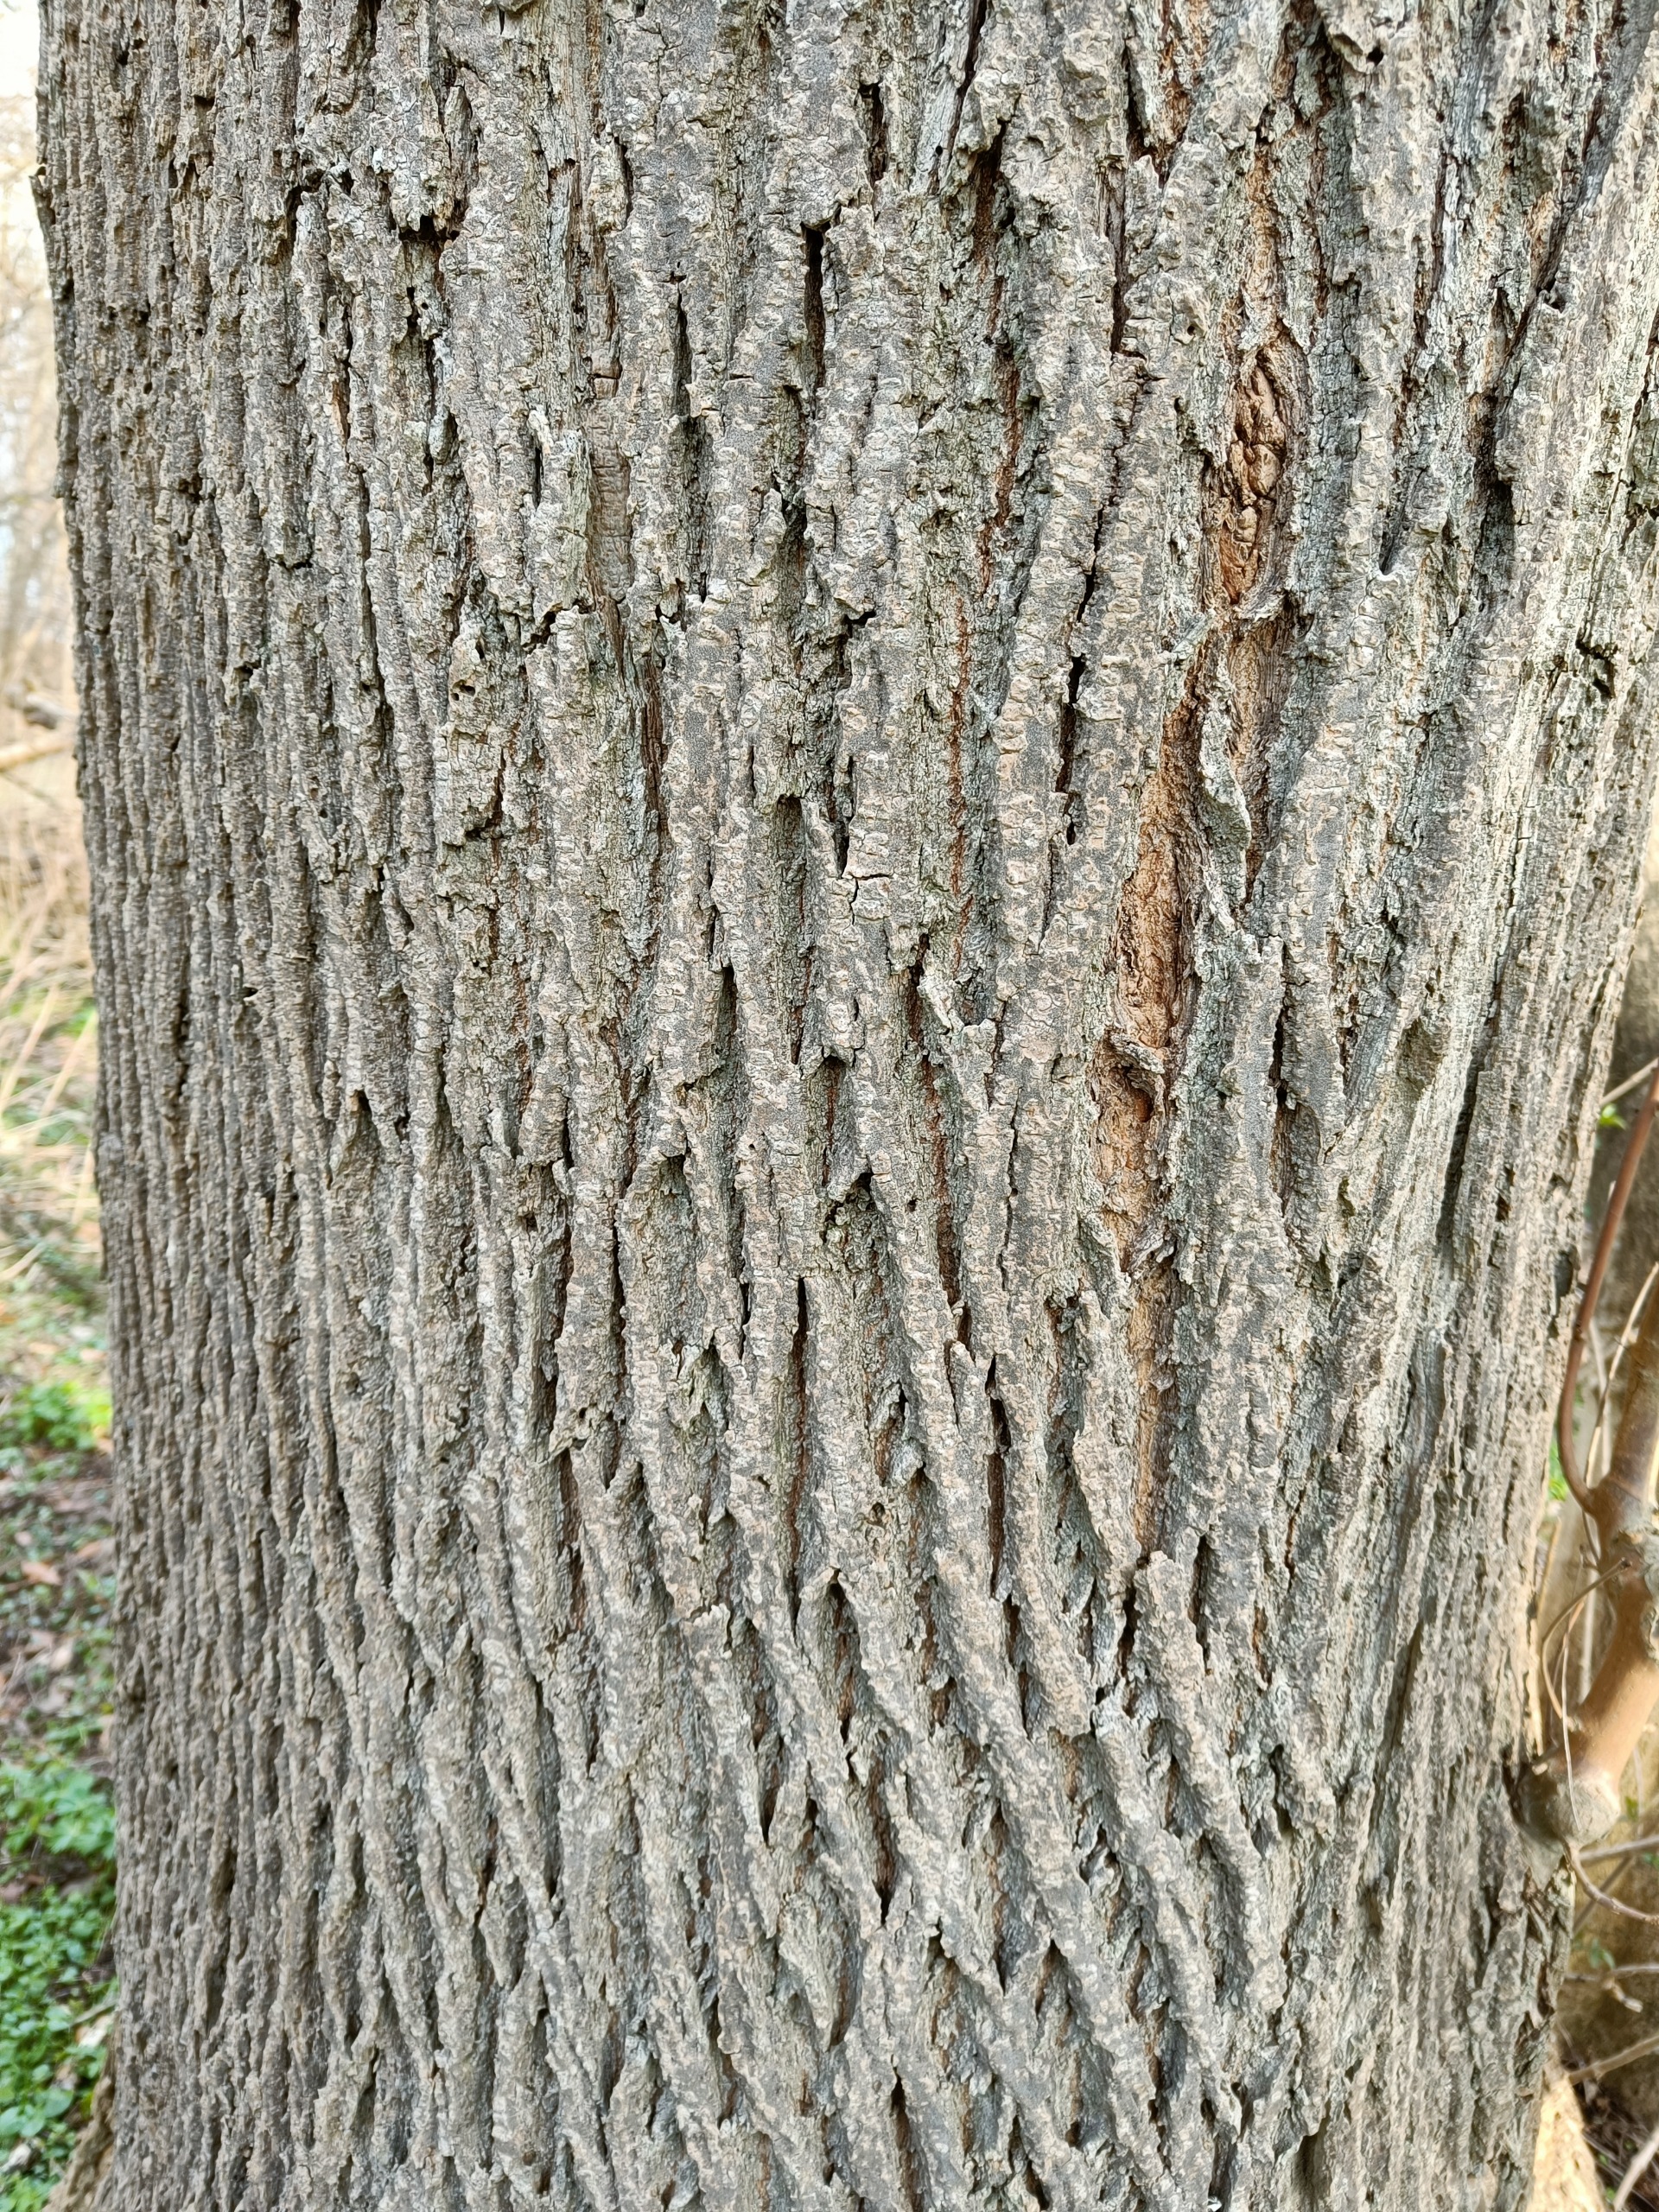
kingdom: Plantae
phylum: Tracheophyta
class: Magnoliopsida
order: Lamiales
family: Oleaceae
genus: Fraxinus
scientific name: Fraxinus excelsior
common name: Ask
